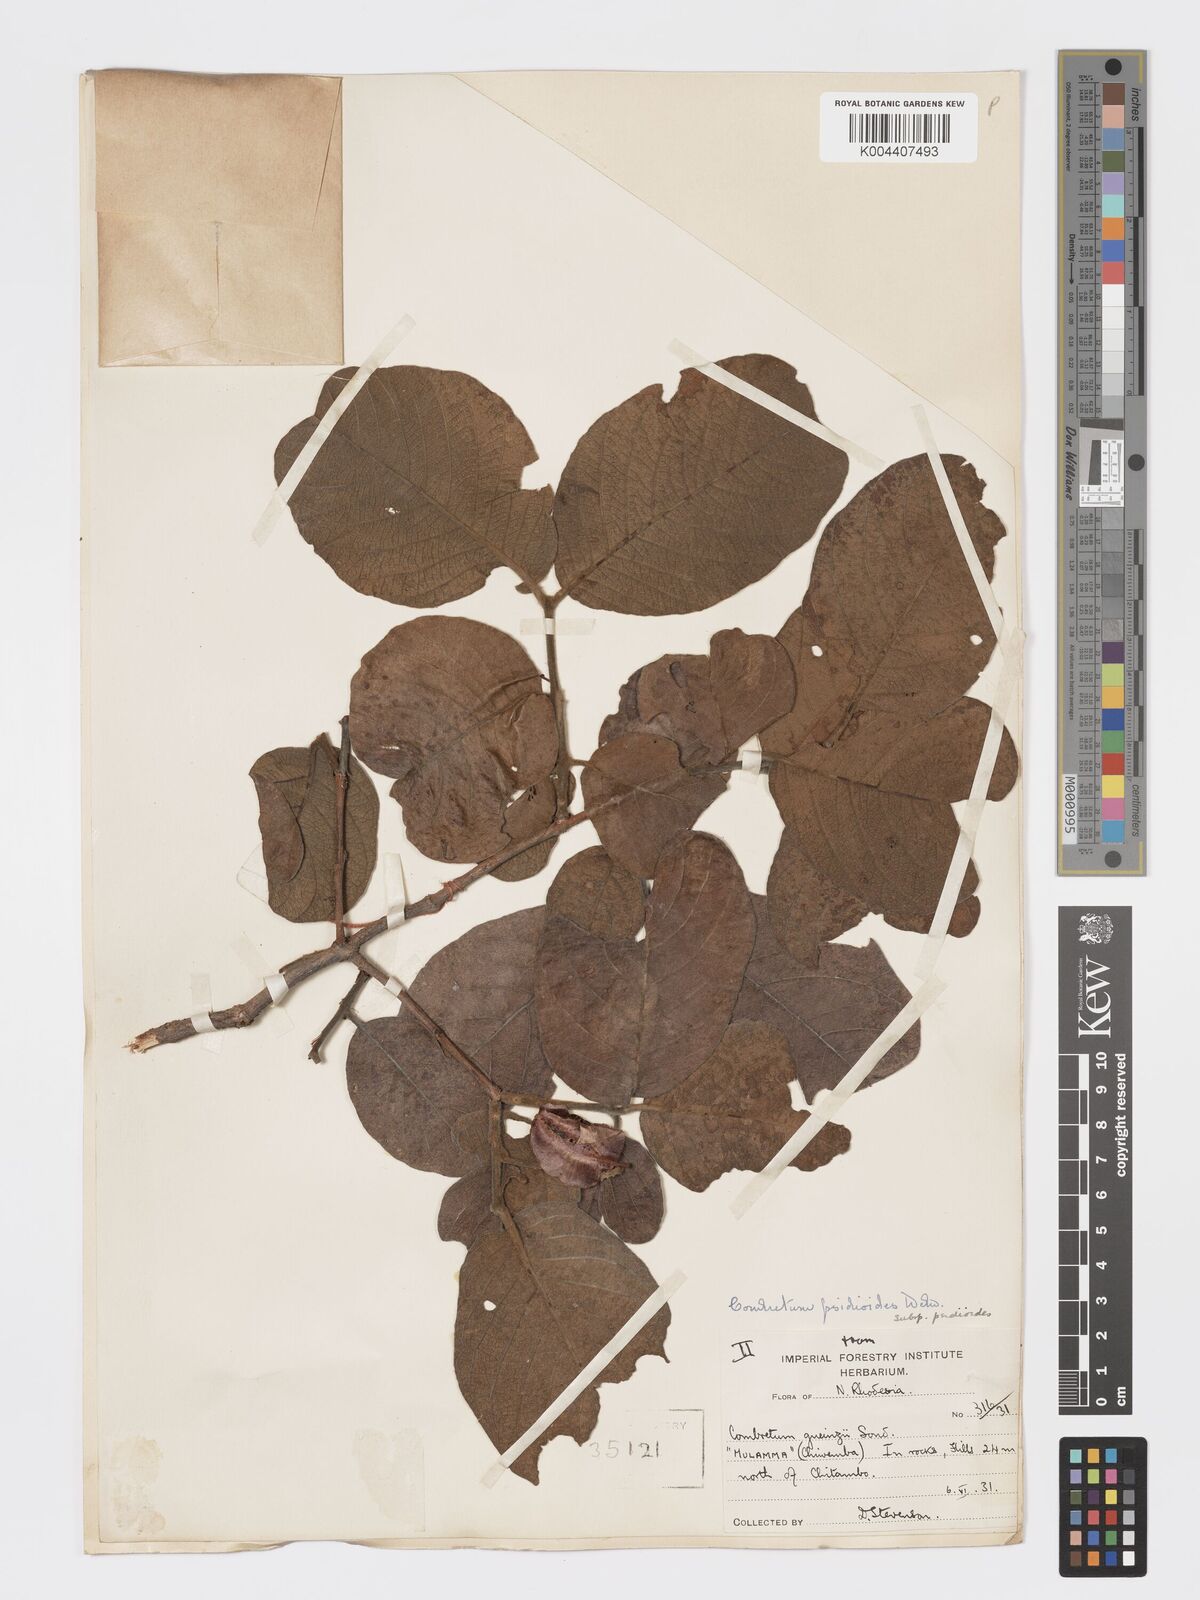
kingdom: Plantae
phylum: Tracheophyta
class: Magnoliopsida
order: Myrtales
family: Combretaceae
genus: Combretum
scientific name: Combretum psidioides
